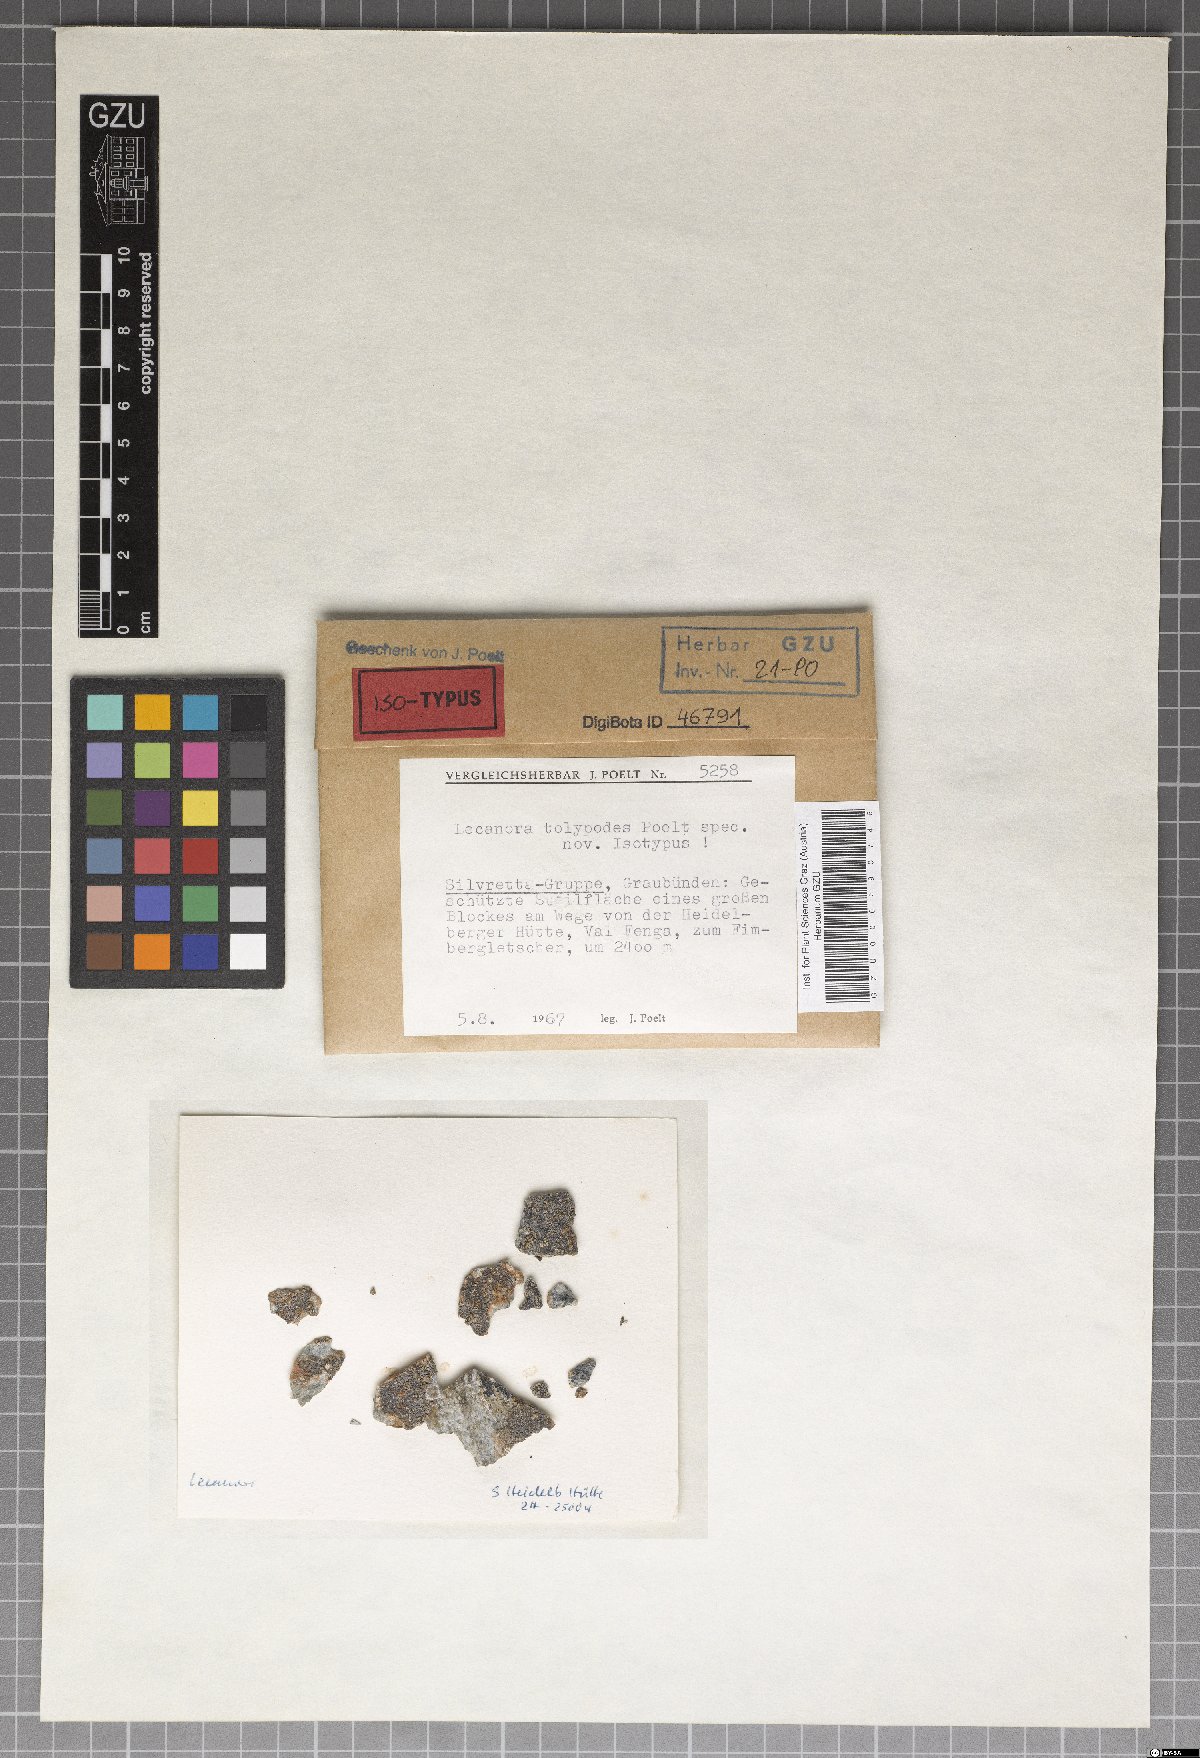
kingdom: Fungi
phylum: Ascomycota
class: Lecanoromycetes
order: Lecanorales
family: Lecanoraceae
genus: Lecanora
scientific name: Lecanora tolypodes
